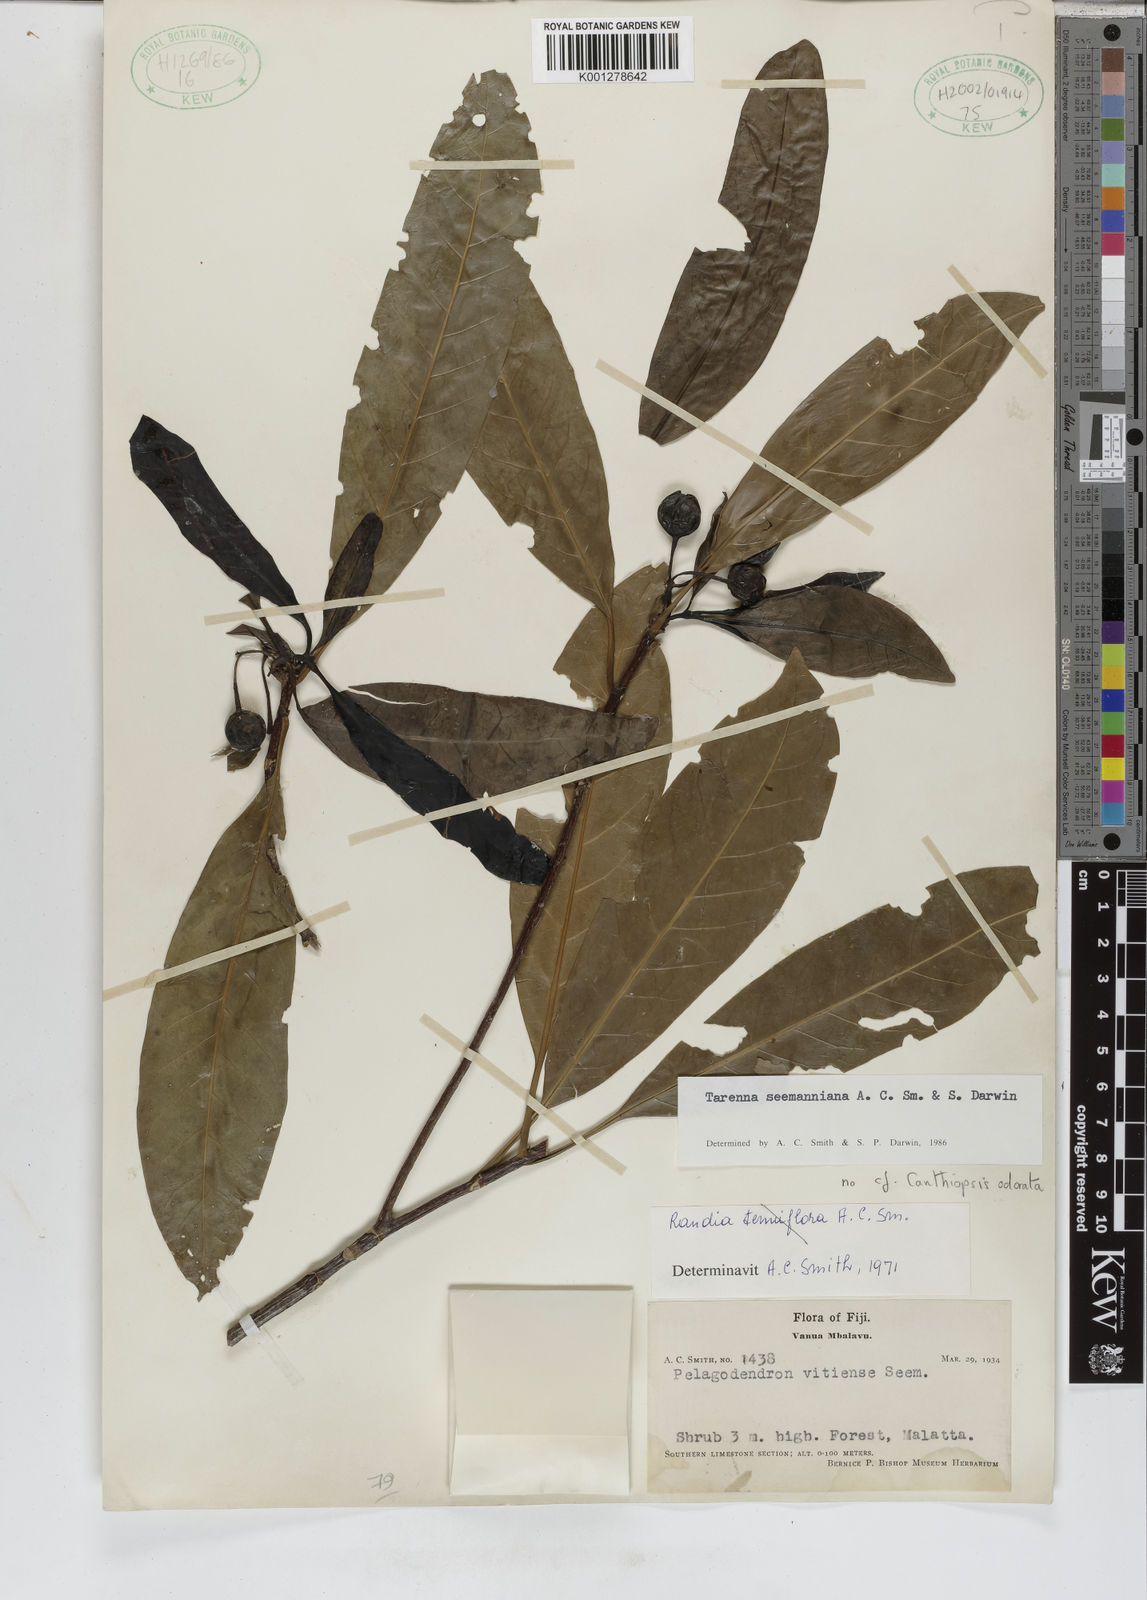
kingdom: Plantae
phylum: Tracheophyta
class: Magnoliopsida
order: Gentianales
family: Rubiaceae
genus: Tarenna
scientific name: Tarenna seemanniana
